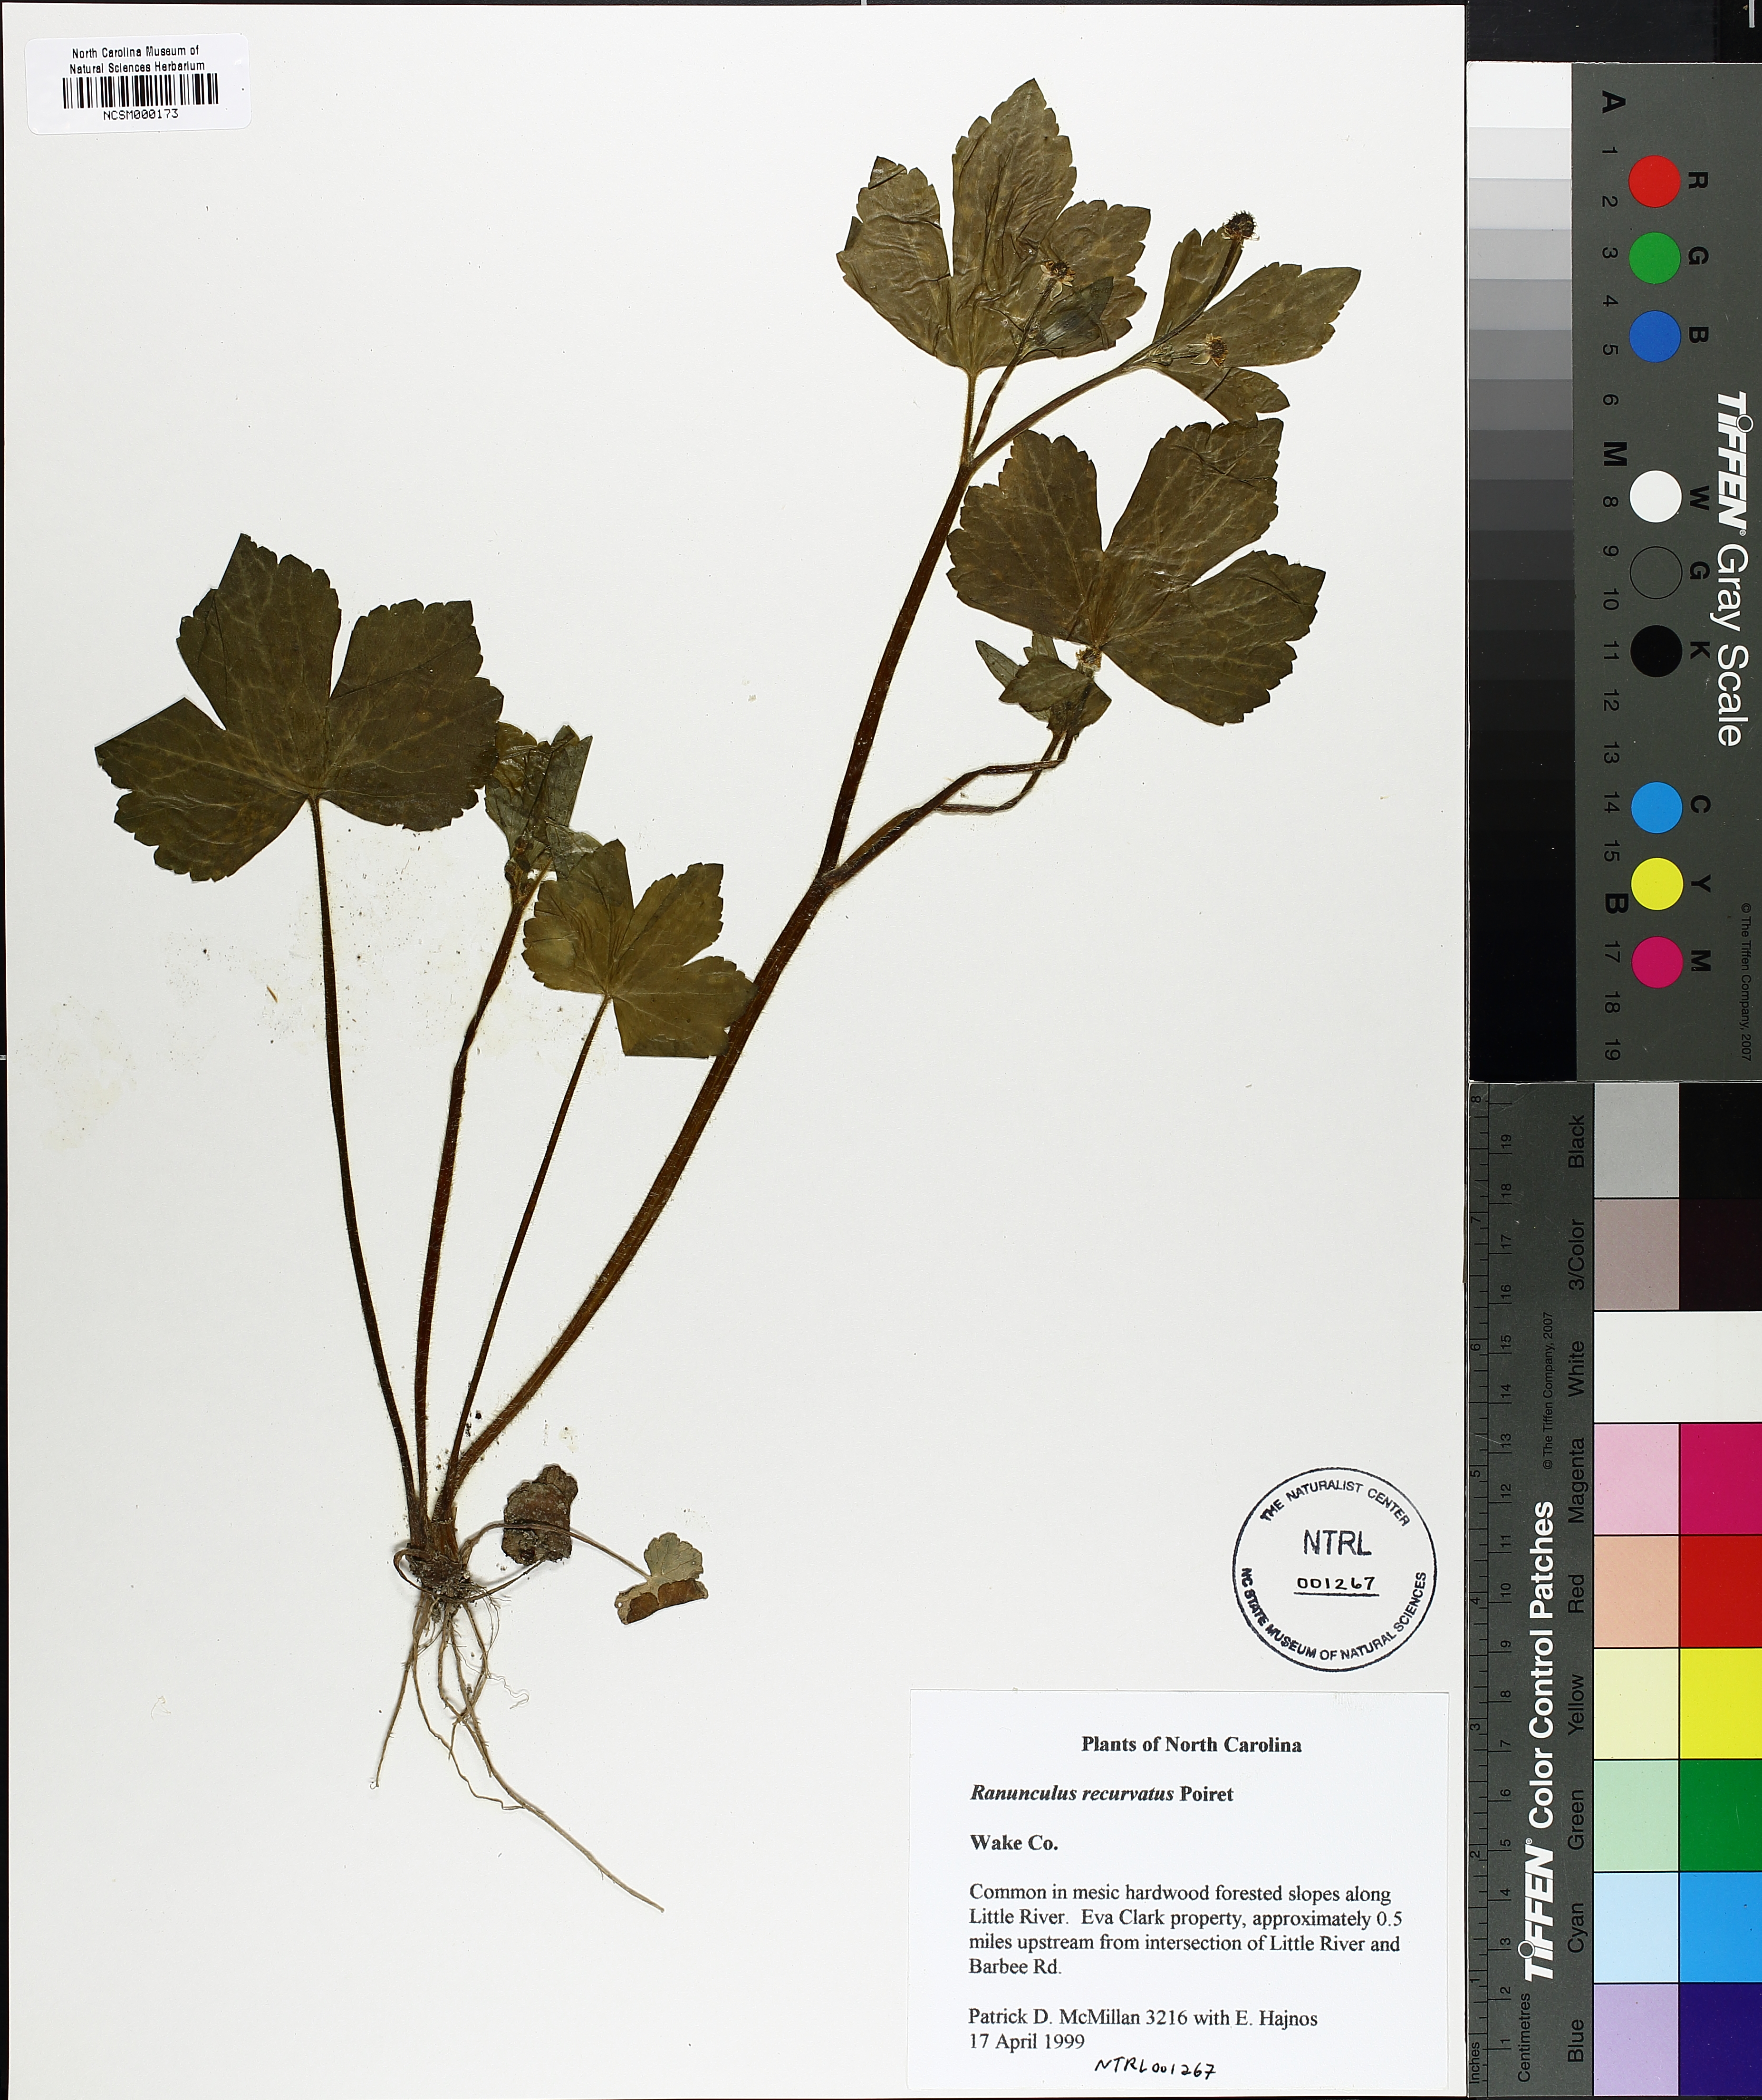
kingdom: Plantae
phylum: Tracheophyta
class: Magnoliopsida
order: Ranunculales
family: Ranunculaceae
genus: Ranunculus
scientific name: Ranunculus recurvatus
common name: Blisterwort
